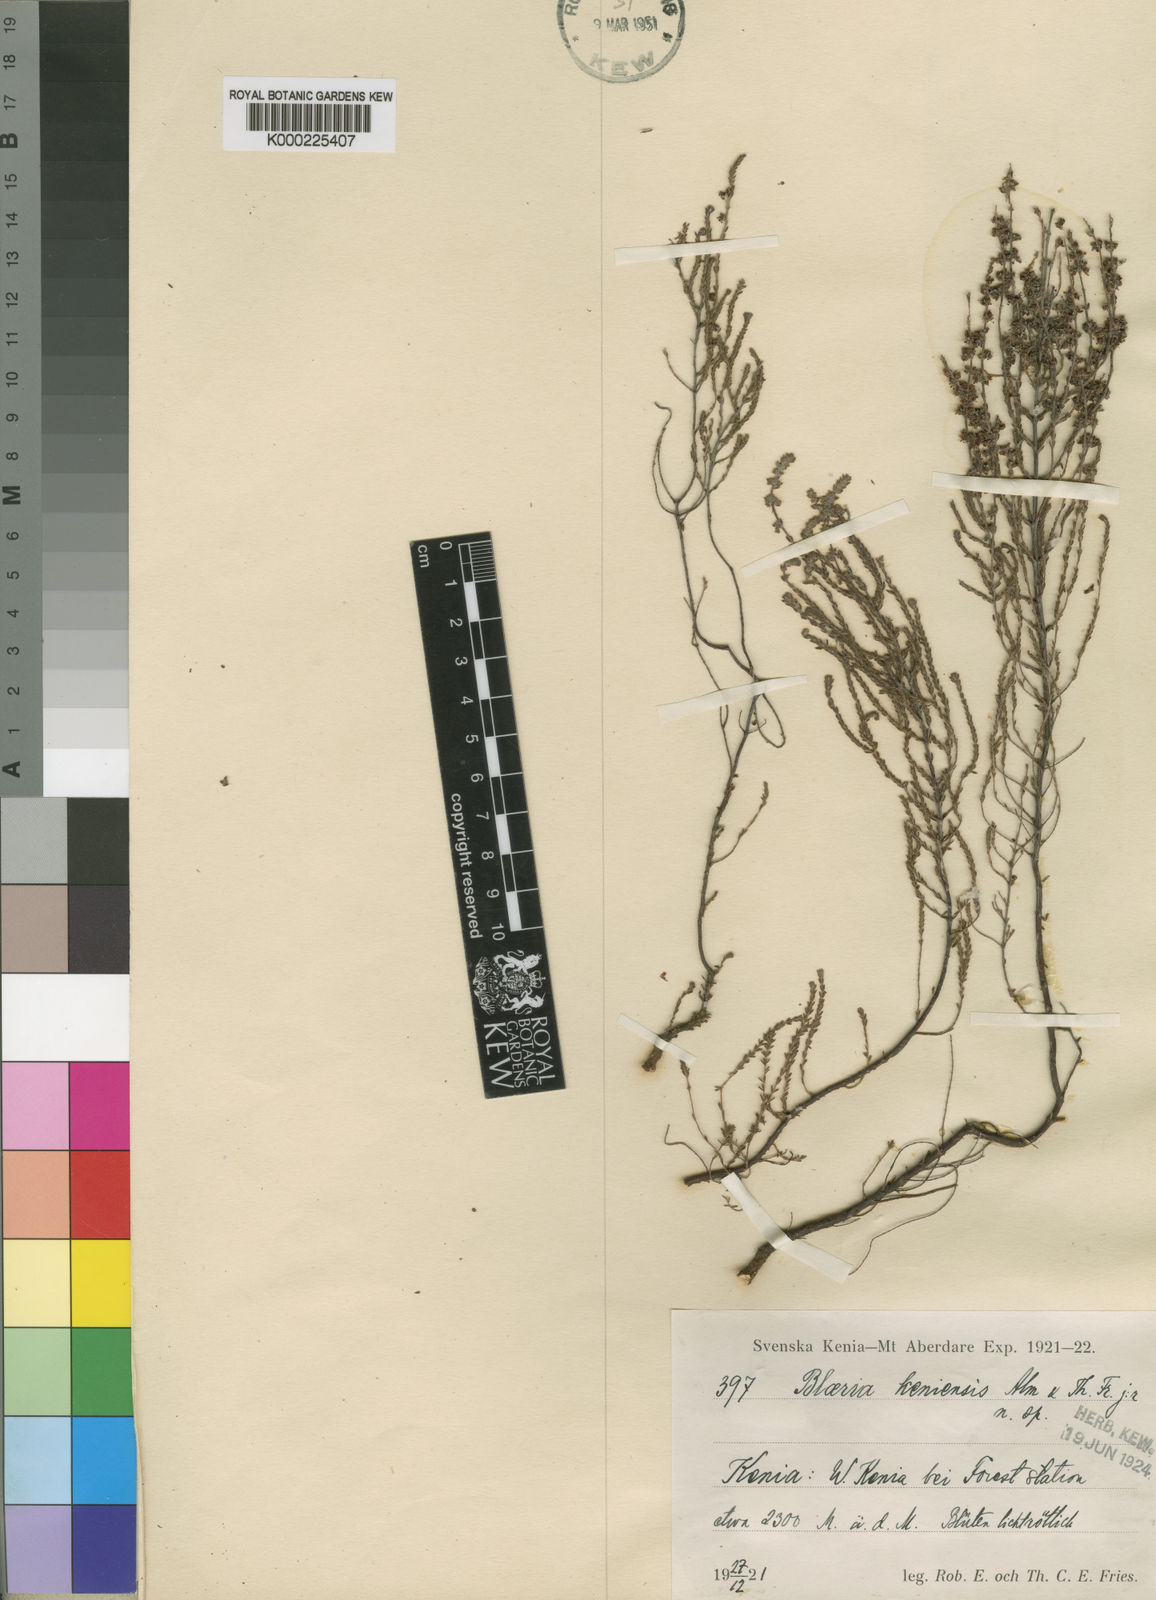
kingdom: Plantae
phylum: Tracheophyta
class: Magnoliopsida
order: Ericales
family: Ericaceae
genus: Erica
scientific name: Erica silvatica
